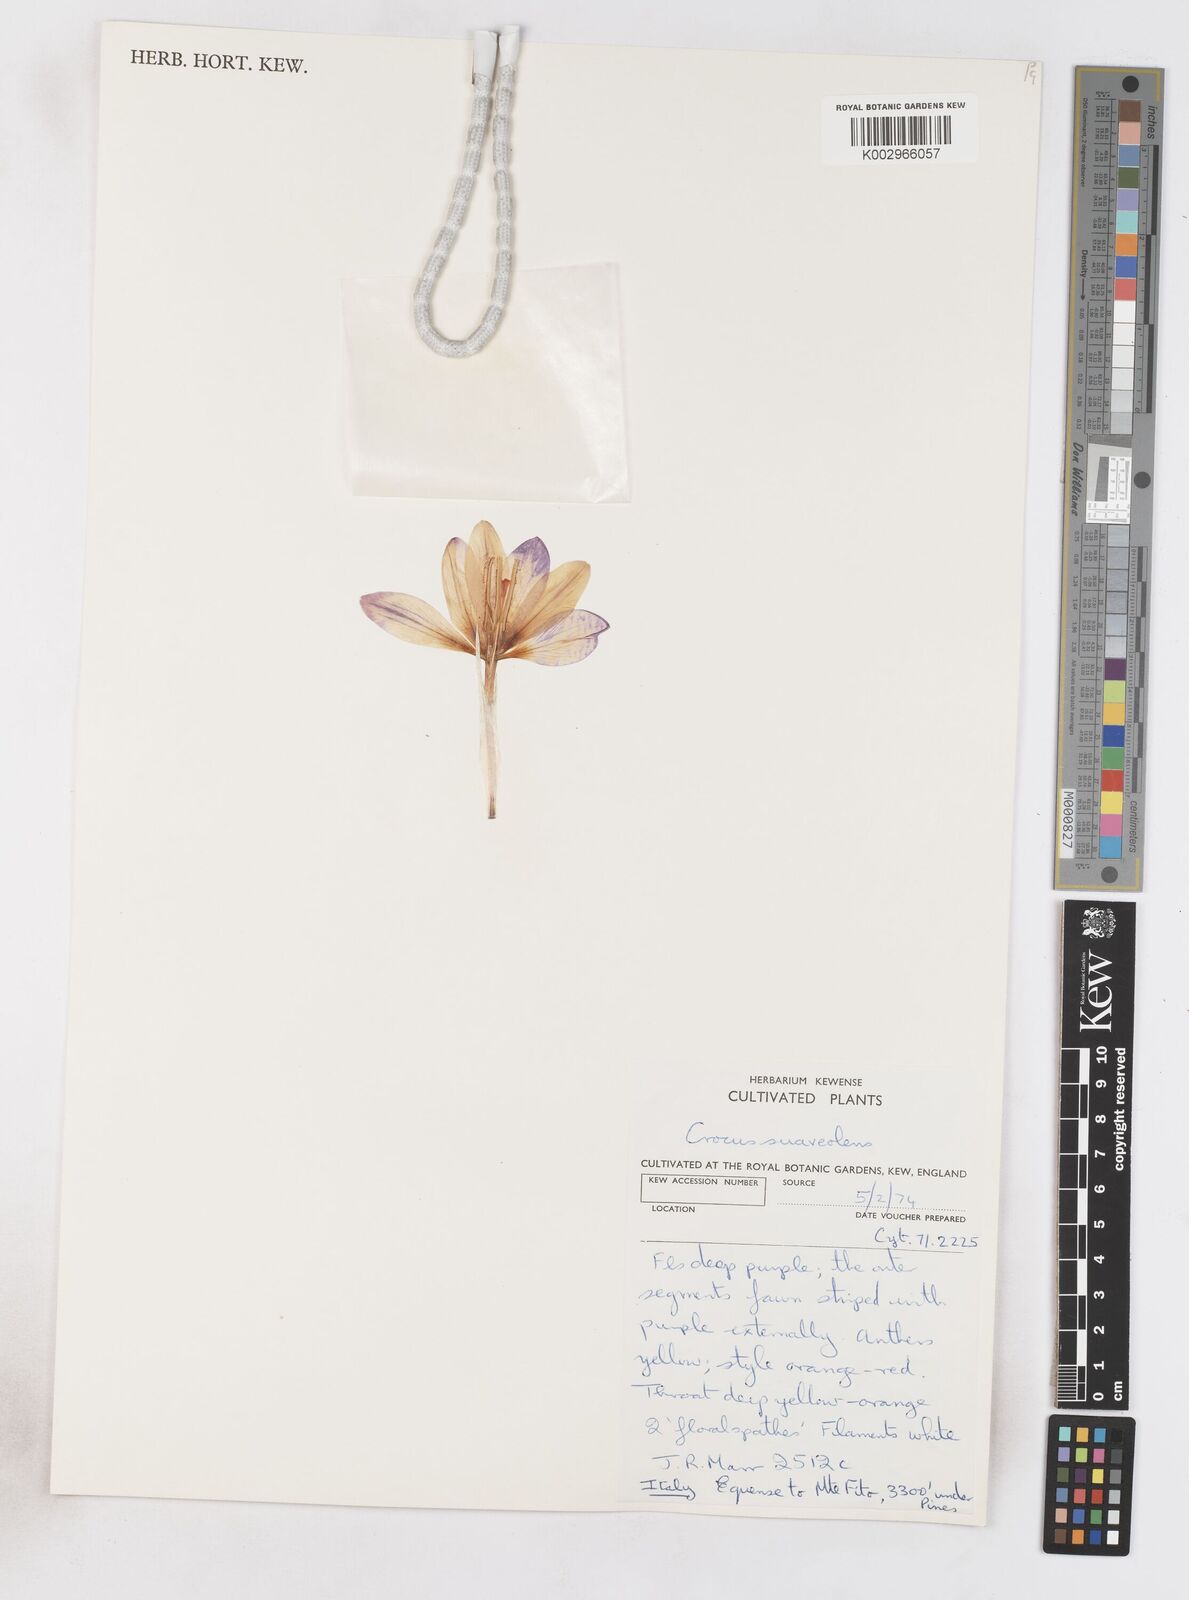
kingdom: Plantae
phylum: Tracheophyta
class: Liliopsida
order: Asparagales
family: Iridaceae
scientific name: Iridaceae
